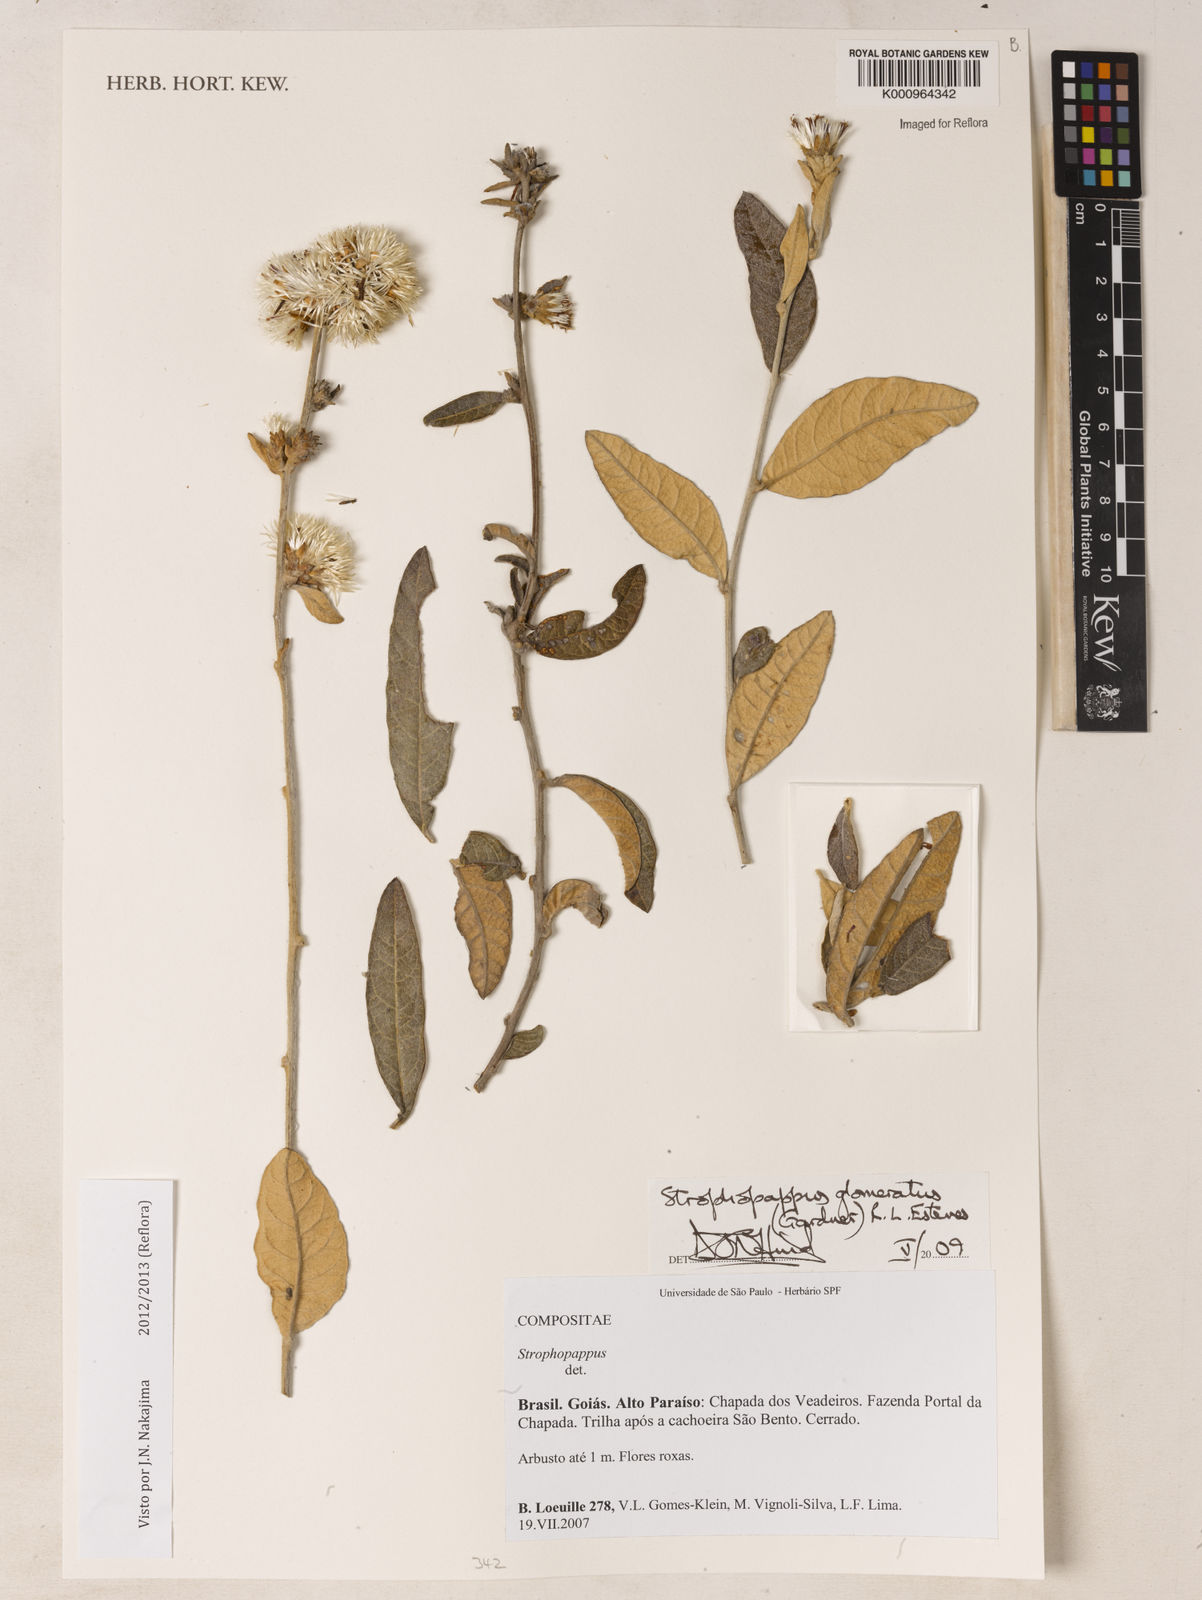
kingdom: Plantae
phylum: Tracheophyta
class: Magnoliopsida
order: Asterales
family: Asteraceae
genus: Stilpnopappus
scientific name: Stilpnopappus glomeratus
